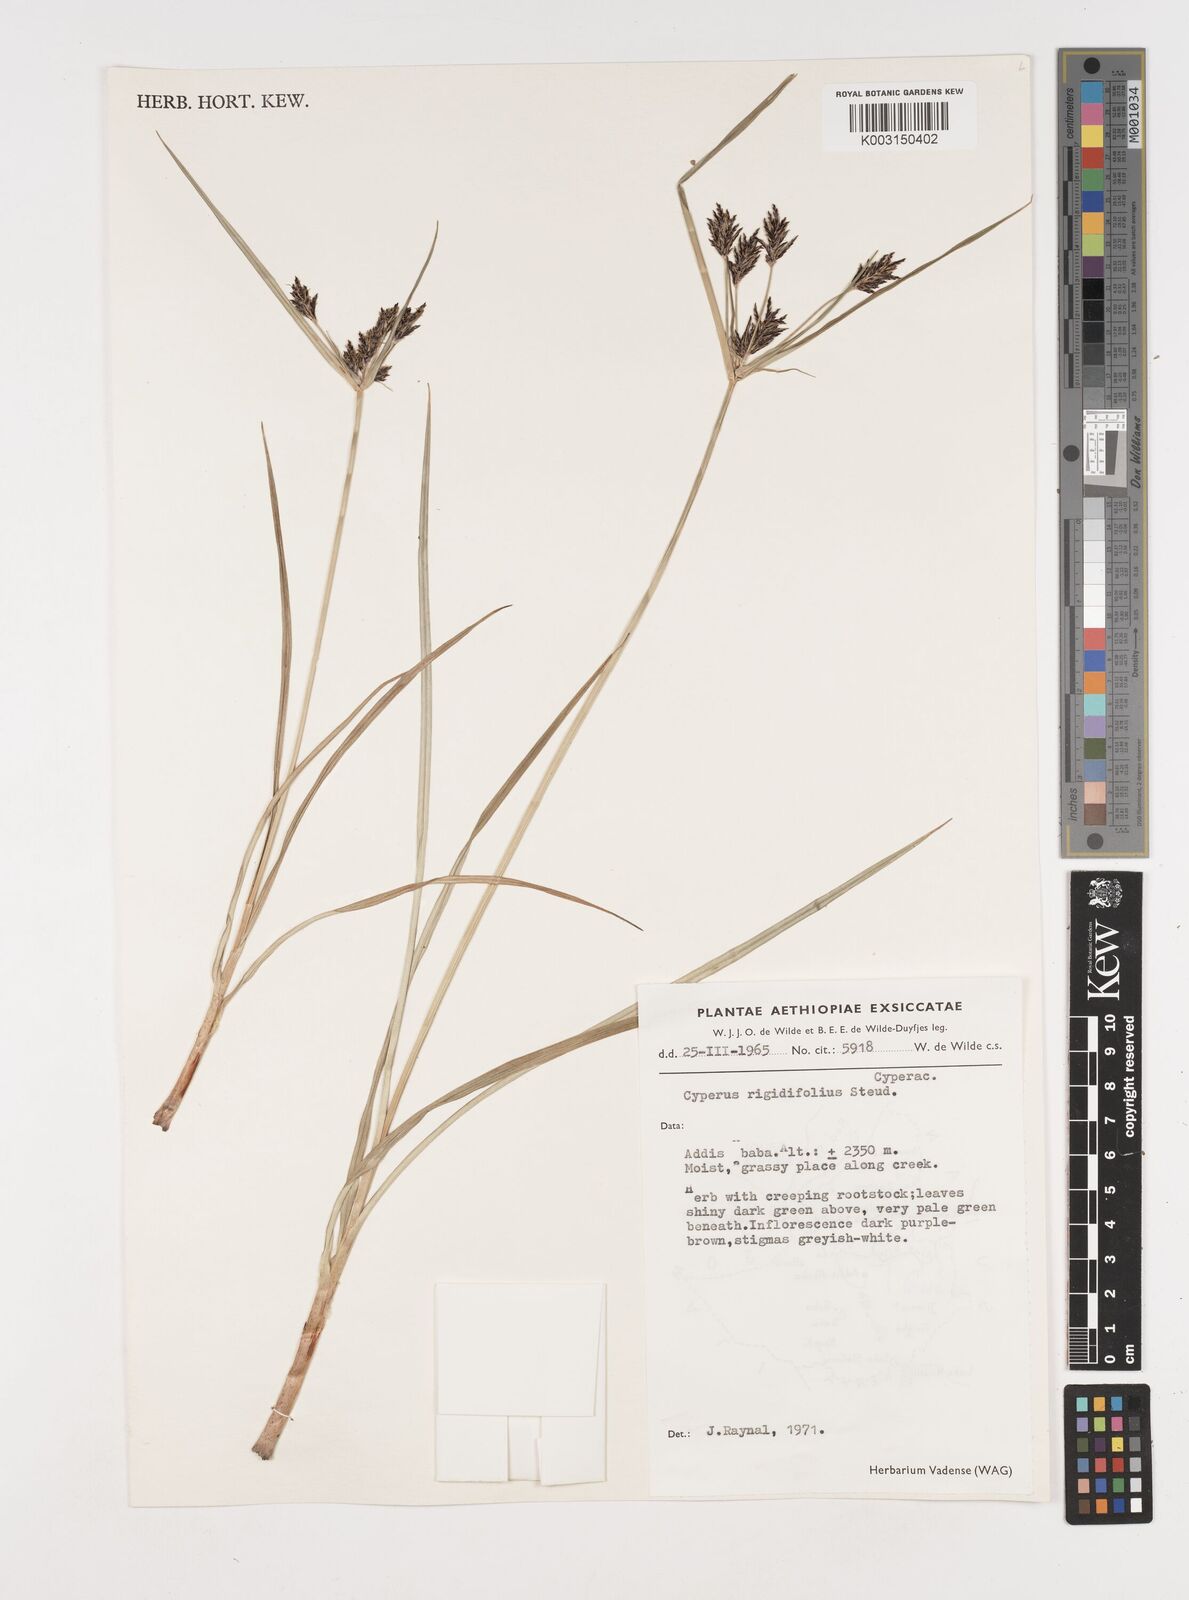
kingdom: Plantae
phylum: Tracheophyta
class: Liliopsida
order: Poales
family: Cyperaceae
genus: Cyperus
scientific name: Cyperus rigidifolius
